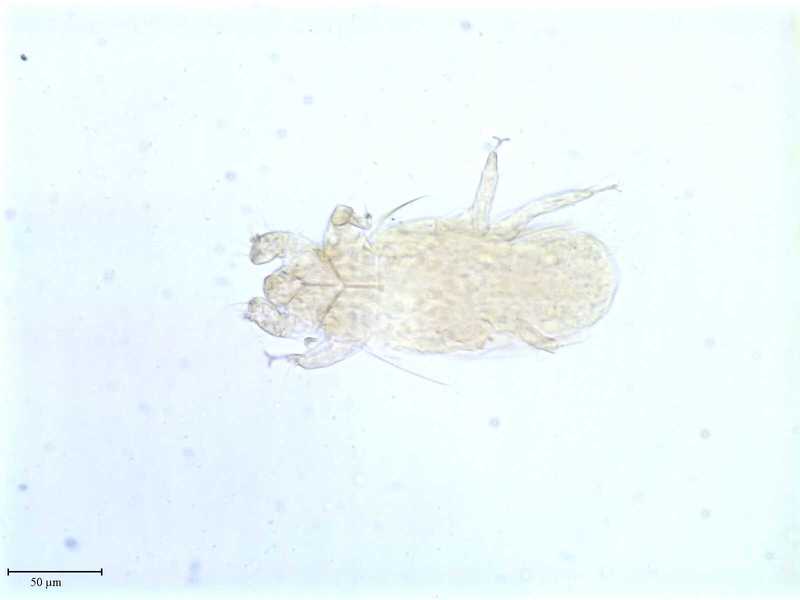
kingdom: Animalia
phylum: Arthropoda
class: Arachnida
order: Trombidiformes
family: Siteroptidae
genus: Pediculopsis
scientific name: Pediculopsis
